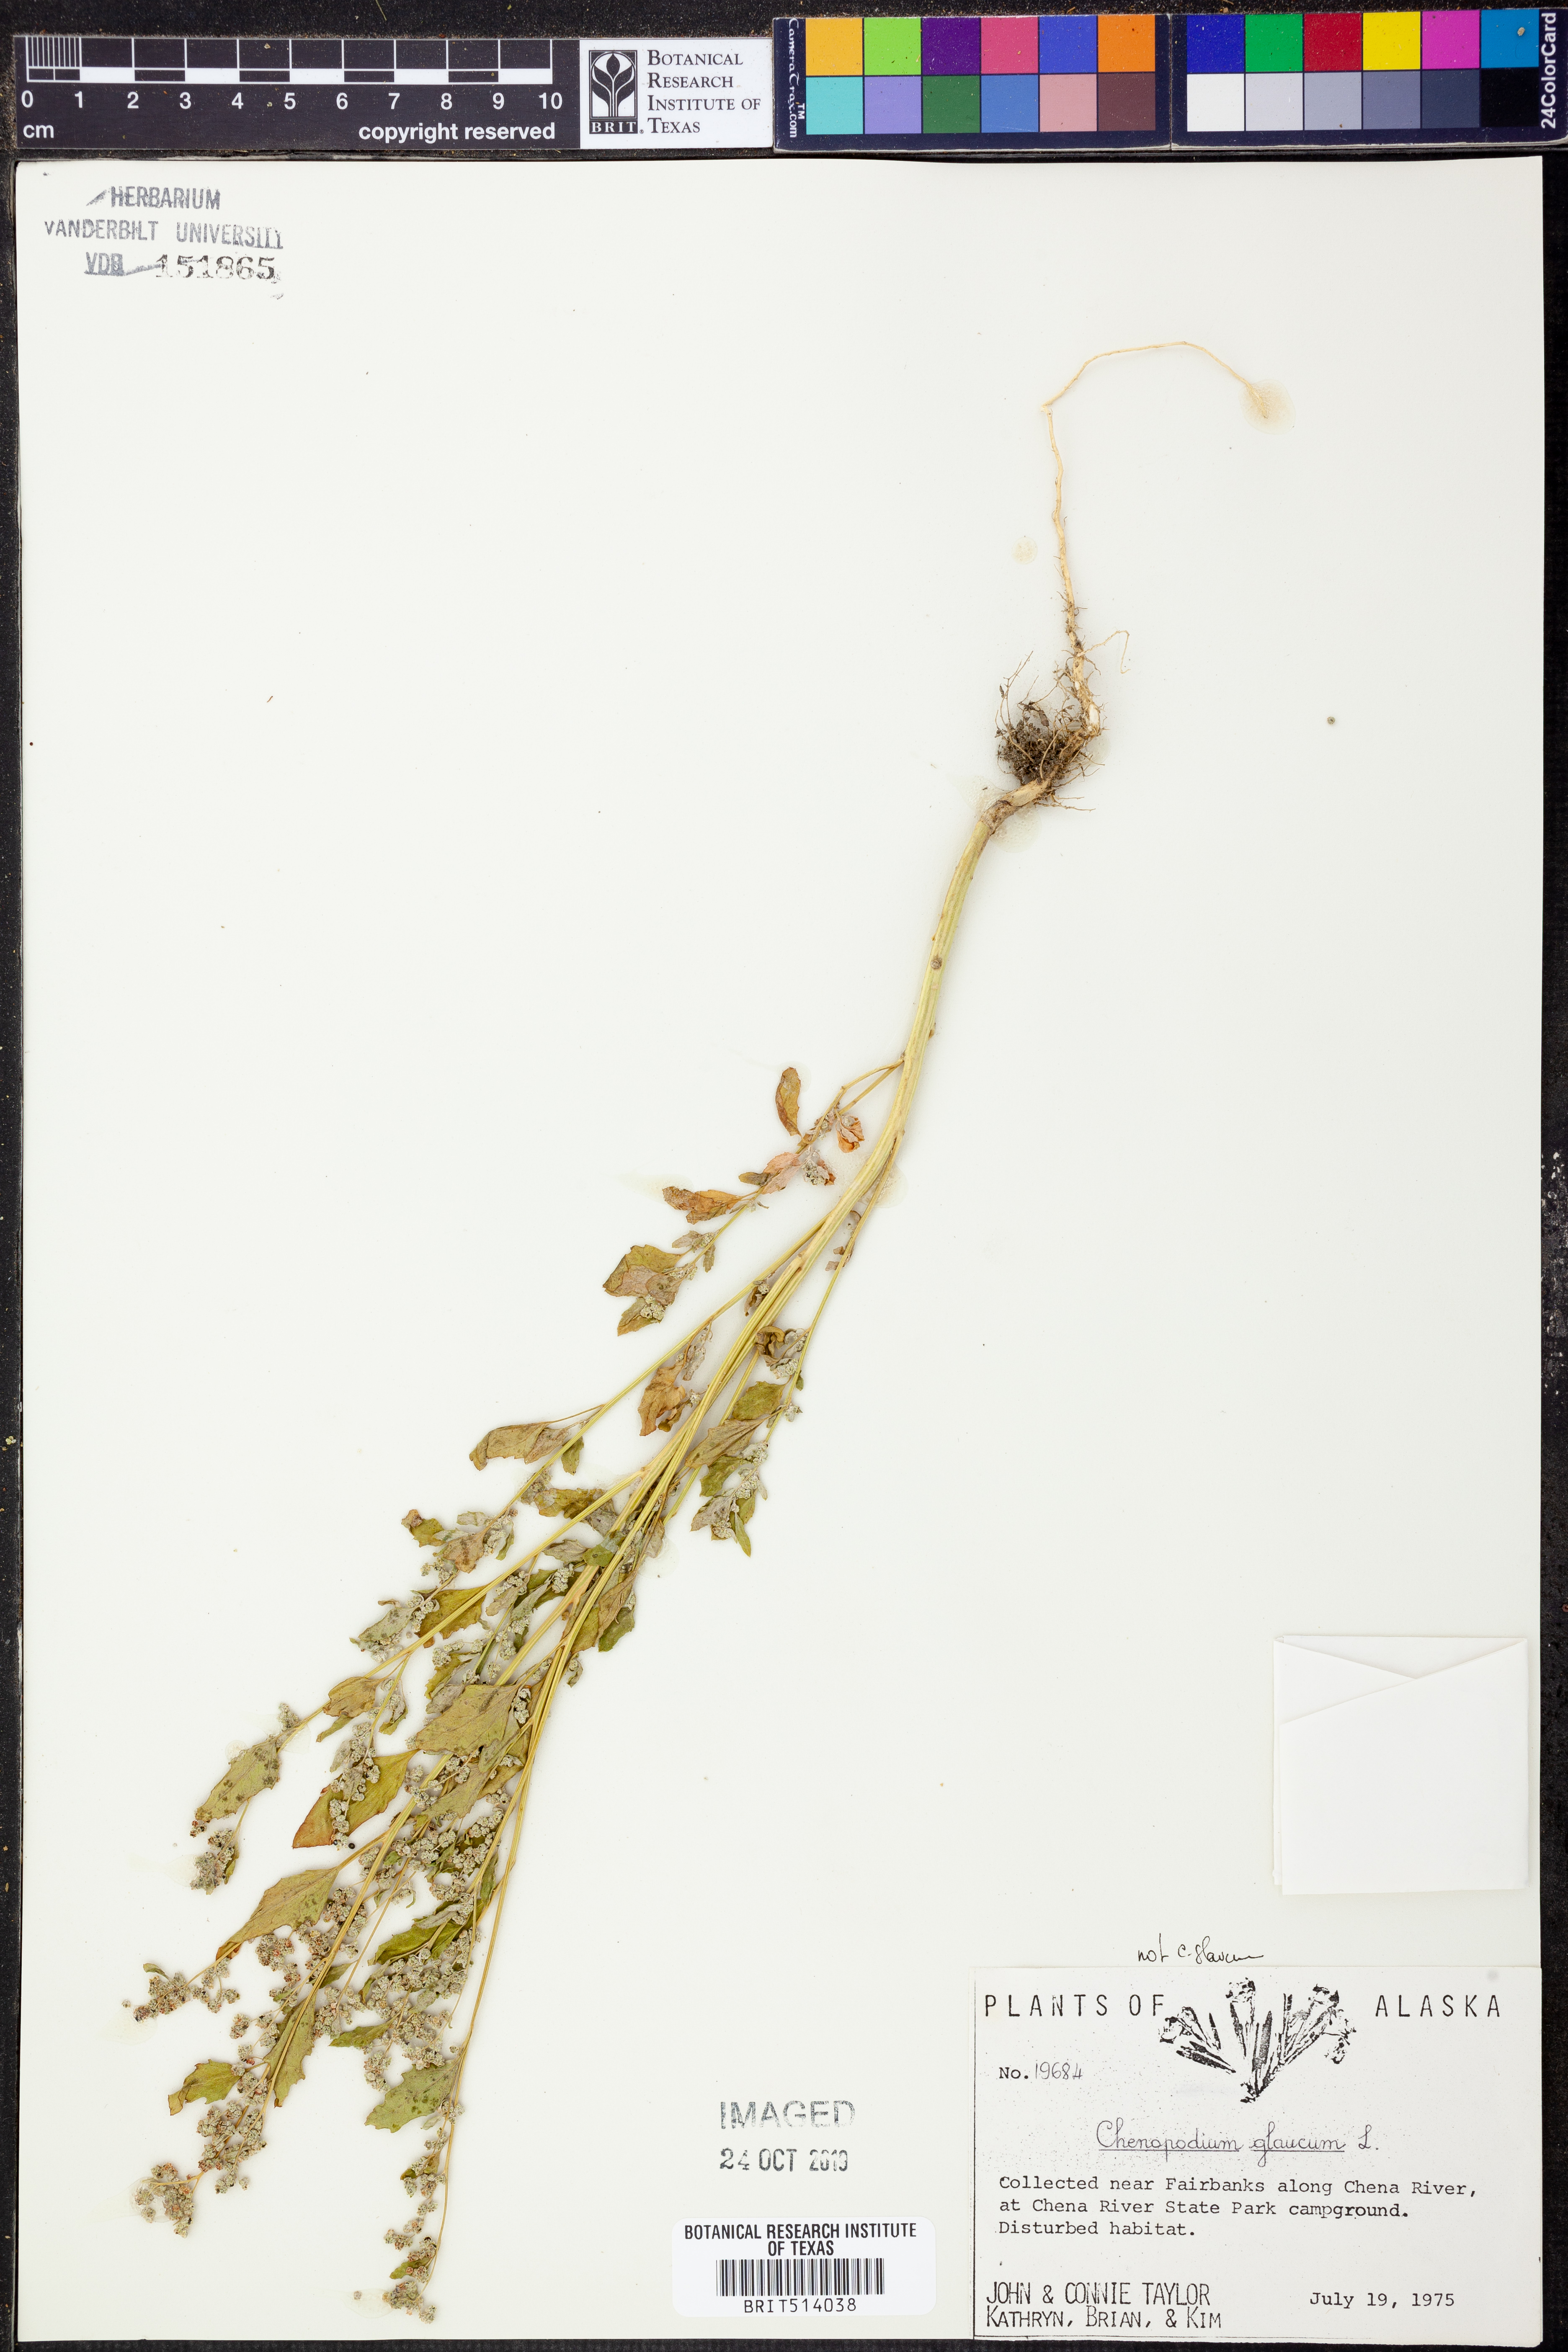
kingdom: Plantae
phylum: Tracheophyta
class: Magnoliopsida
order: Caryophyllales
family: Amaranthaceae
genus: Oxybasis
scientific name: Oxybasis glauca
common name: Glaucous goosefoot
